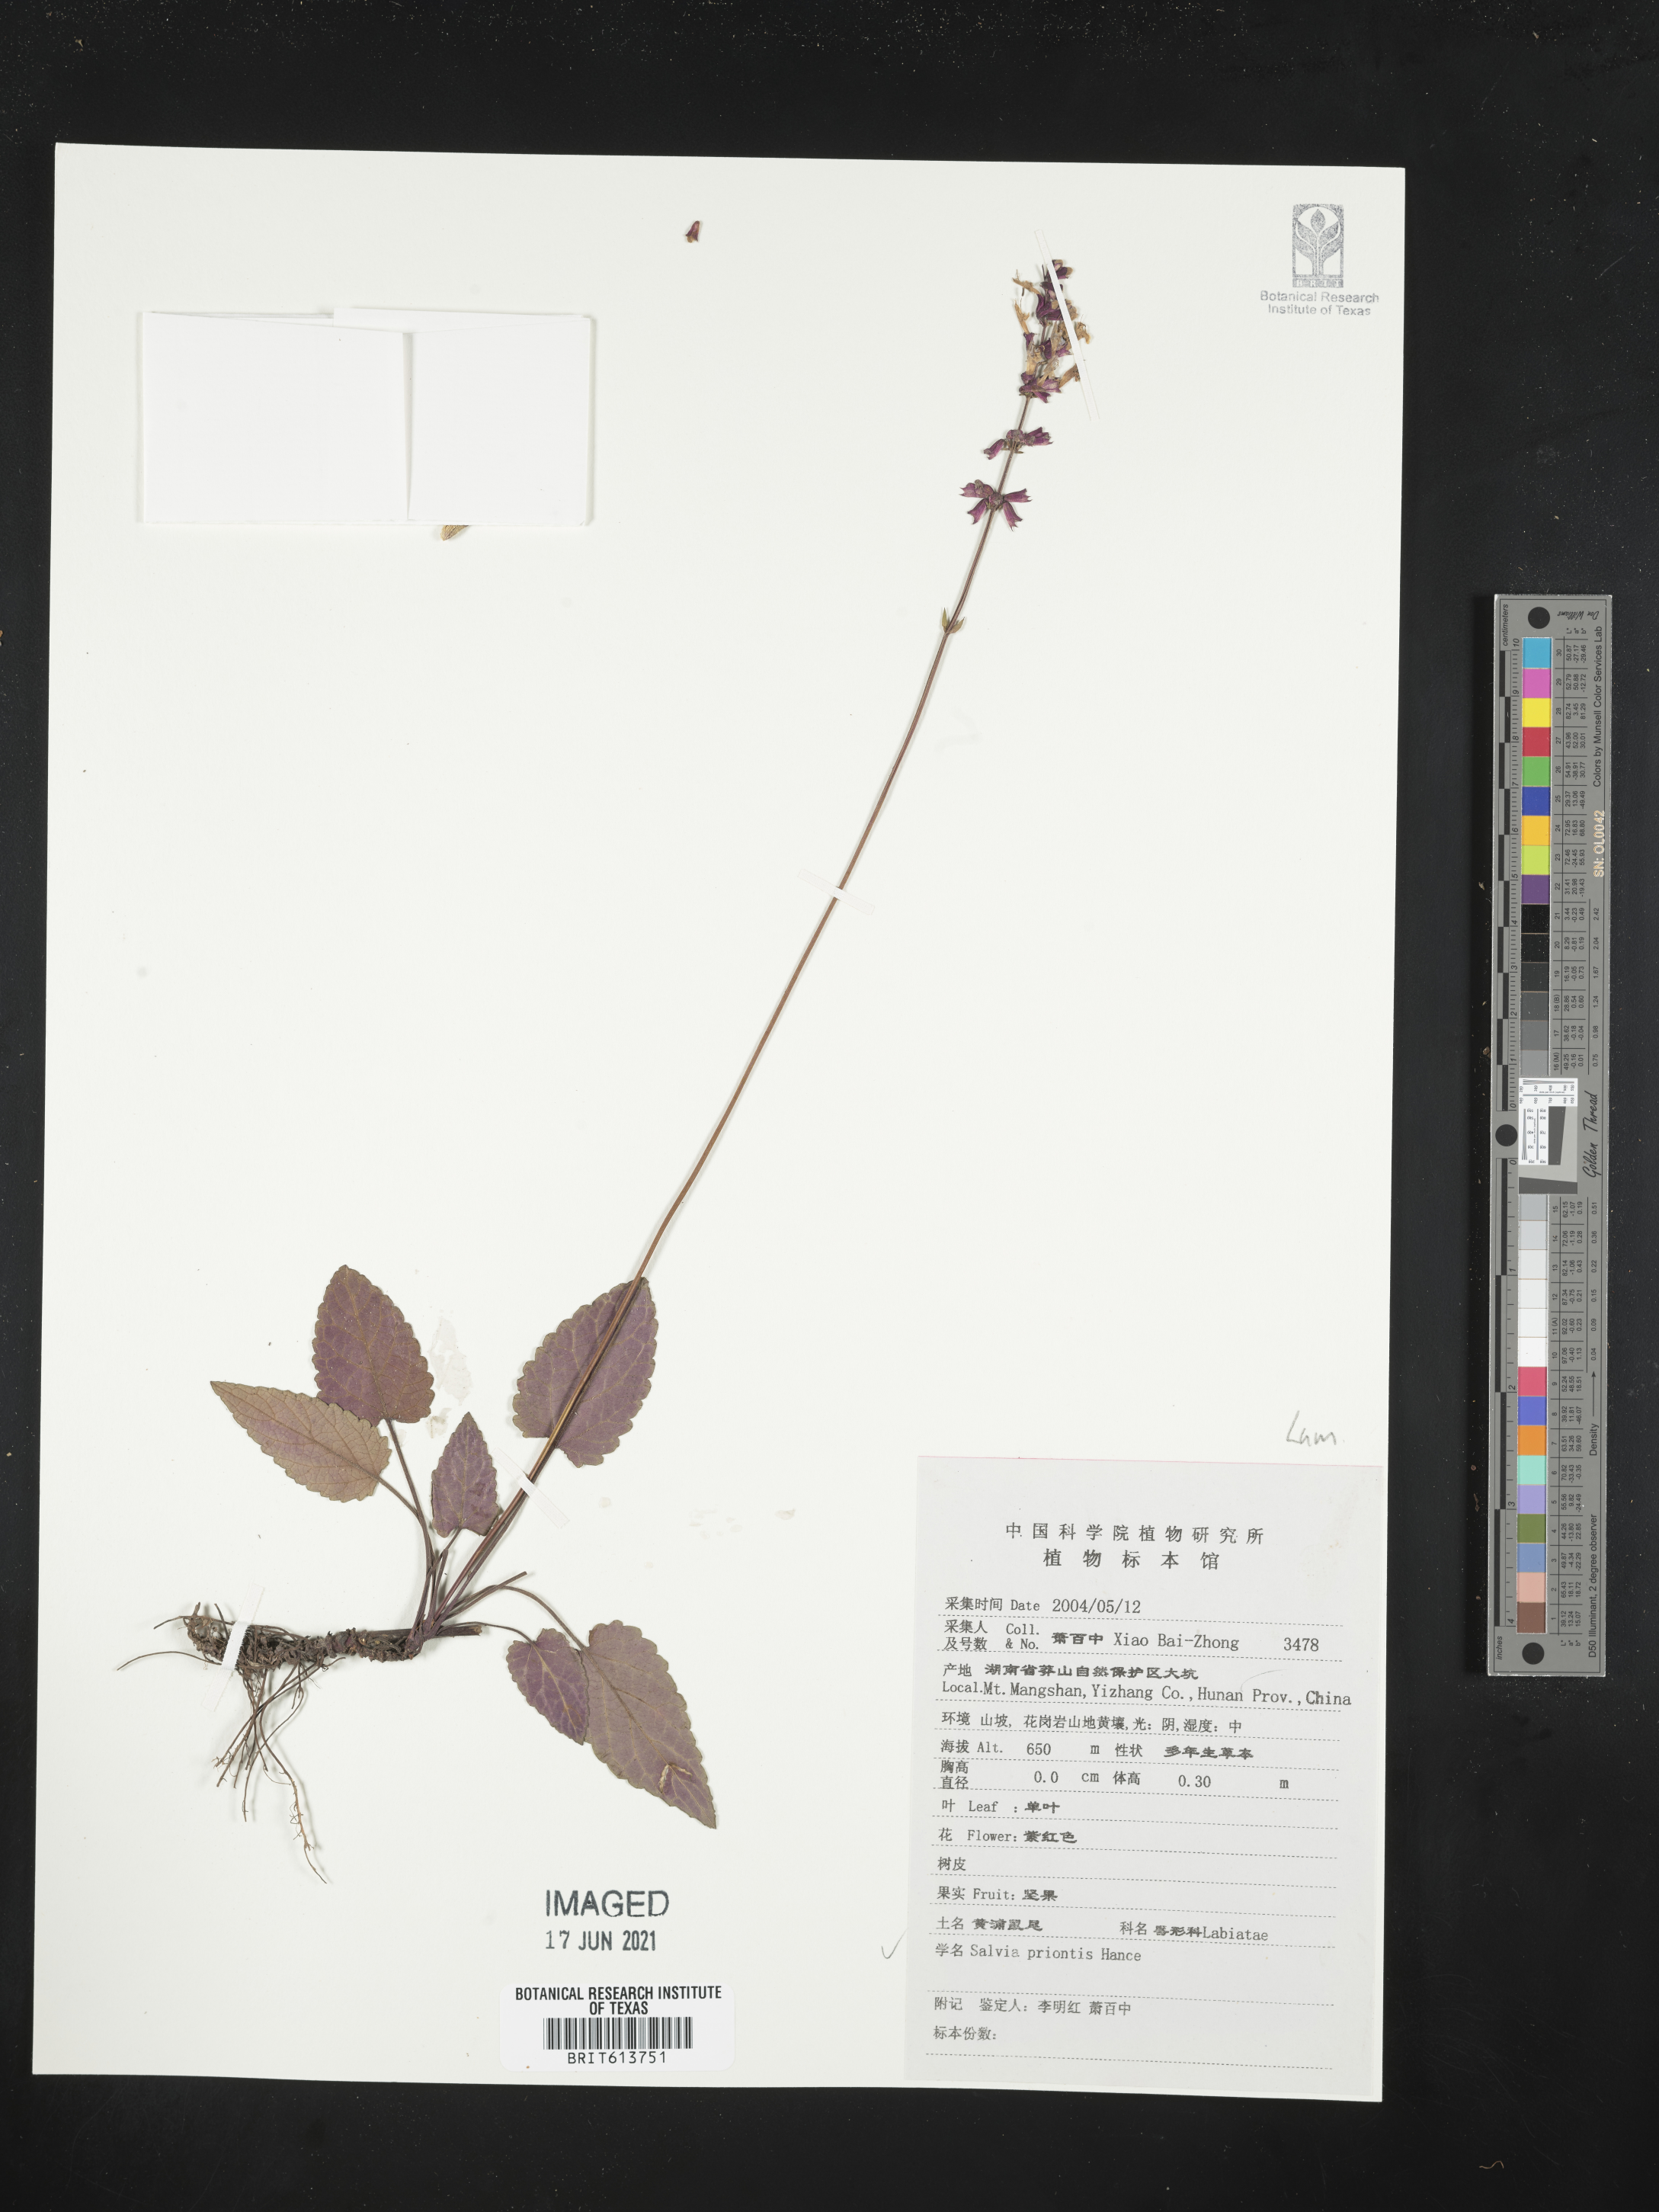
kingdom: Plantae
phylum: Tracheophyta
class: Magnoliopsida
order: Lamiales
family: Lamiaceae
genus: Salvia
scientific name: Salvia prionitis
